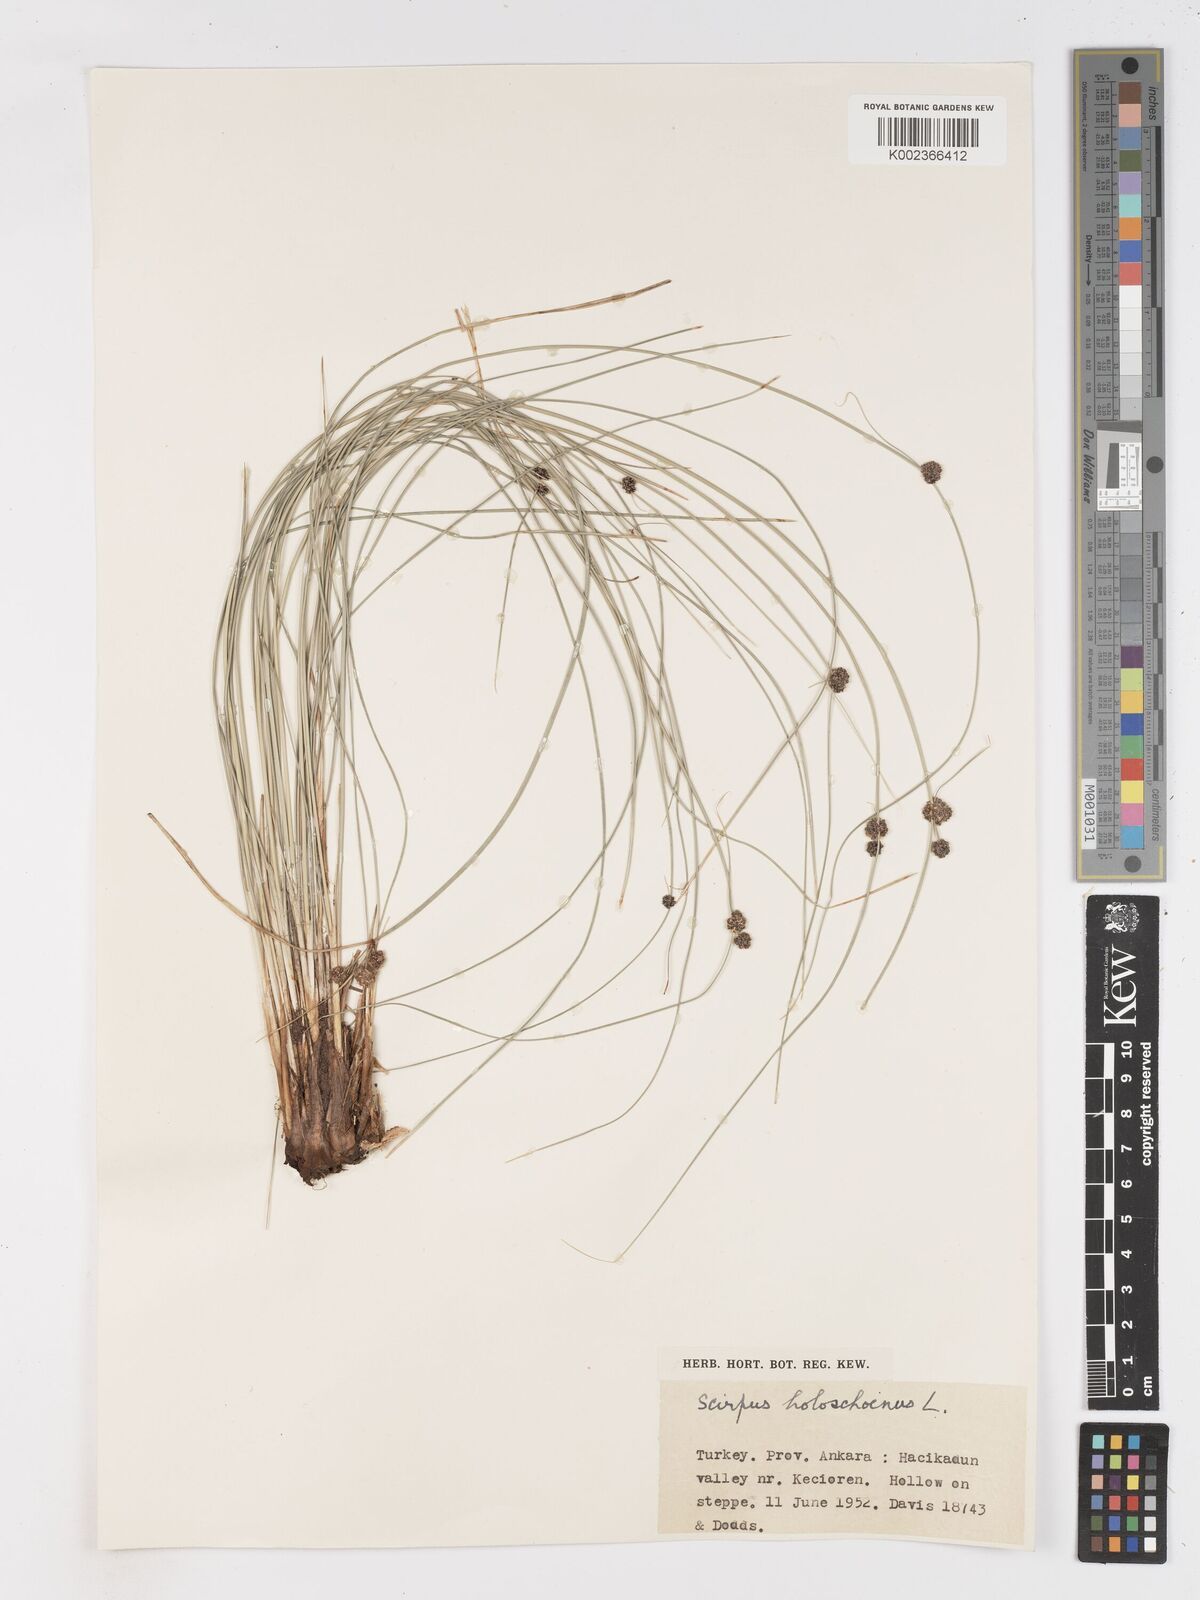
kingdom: Plantae
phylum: Tracheophyta
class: Liliopsida
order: Poales
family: Cyperaceae
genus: Scirpoides
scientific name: Scirpoides holoschoenus
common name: Round-headed club-rush
